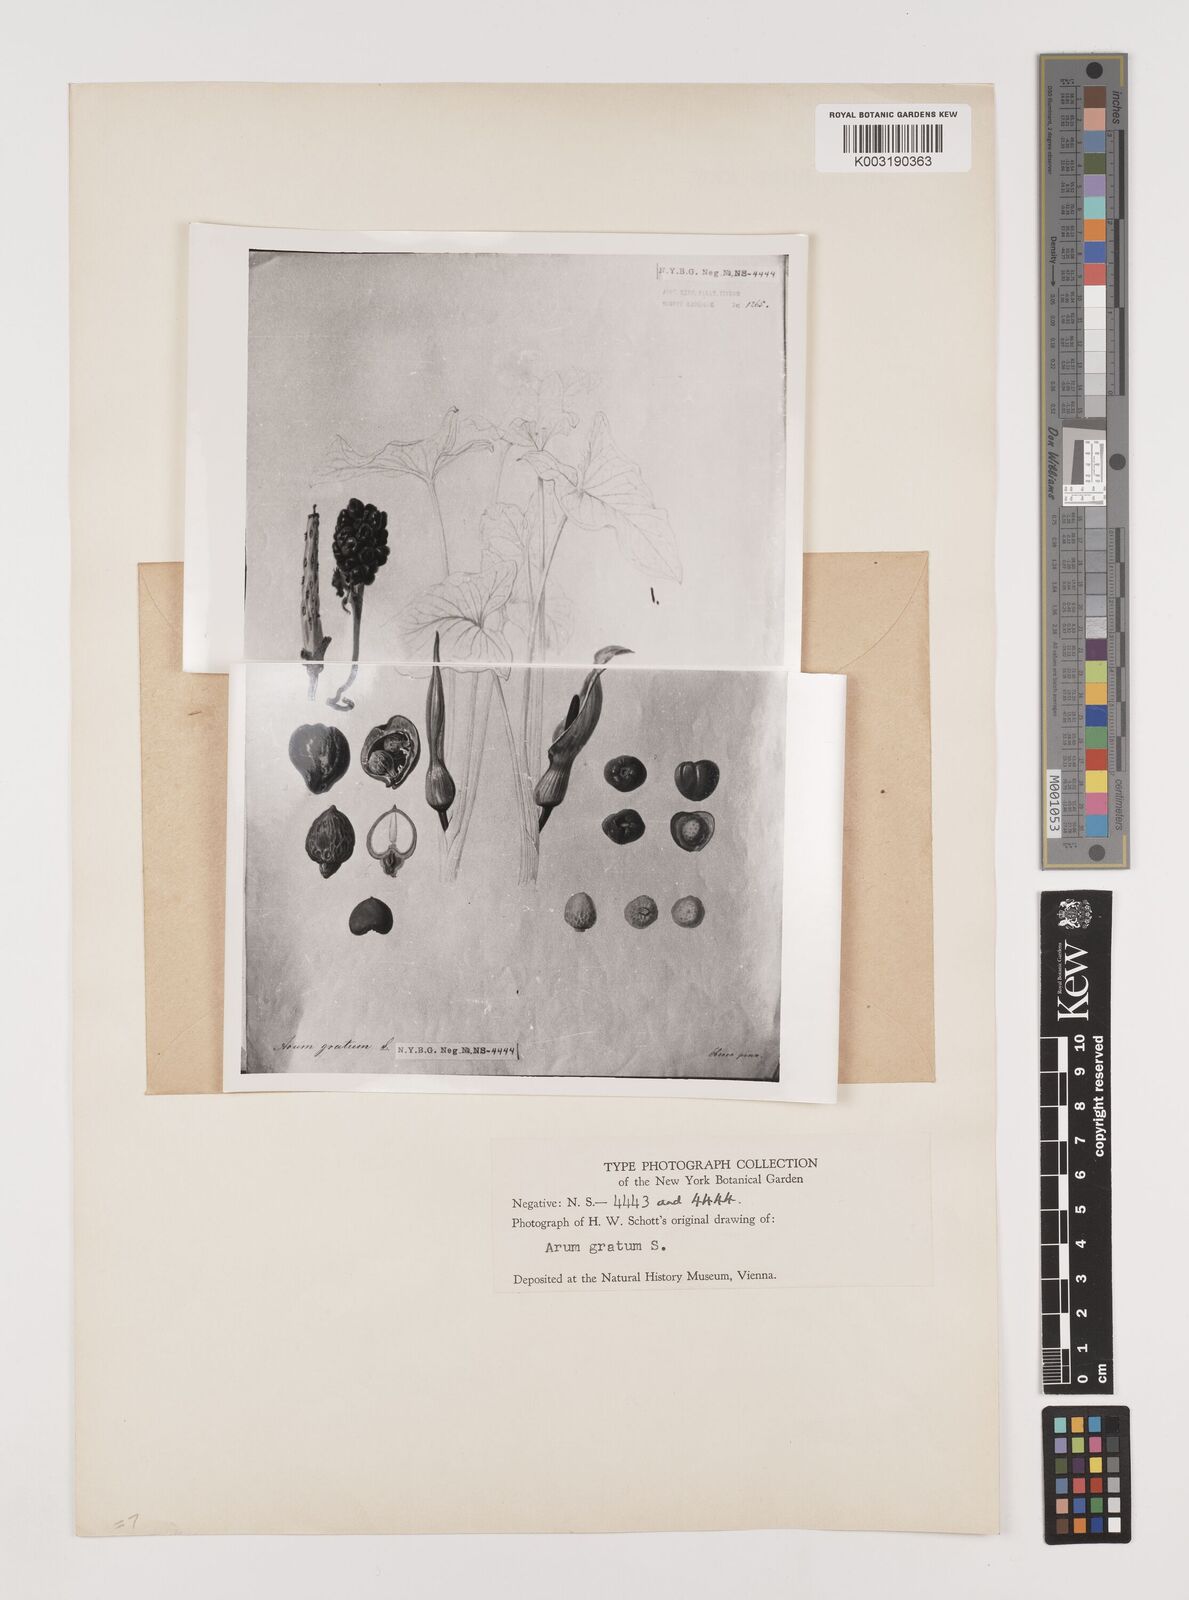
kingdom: Plantae
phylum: Tracheophyta
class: Liliopsida
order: Alismatales
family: Araceae
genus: Arum
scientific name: Arum gratum
